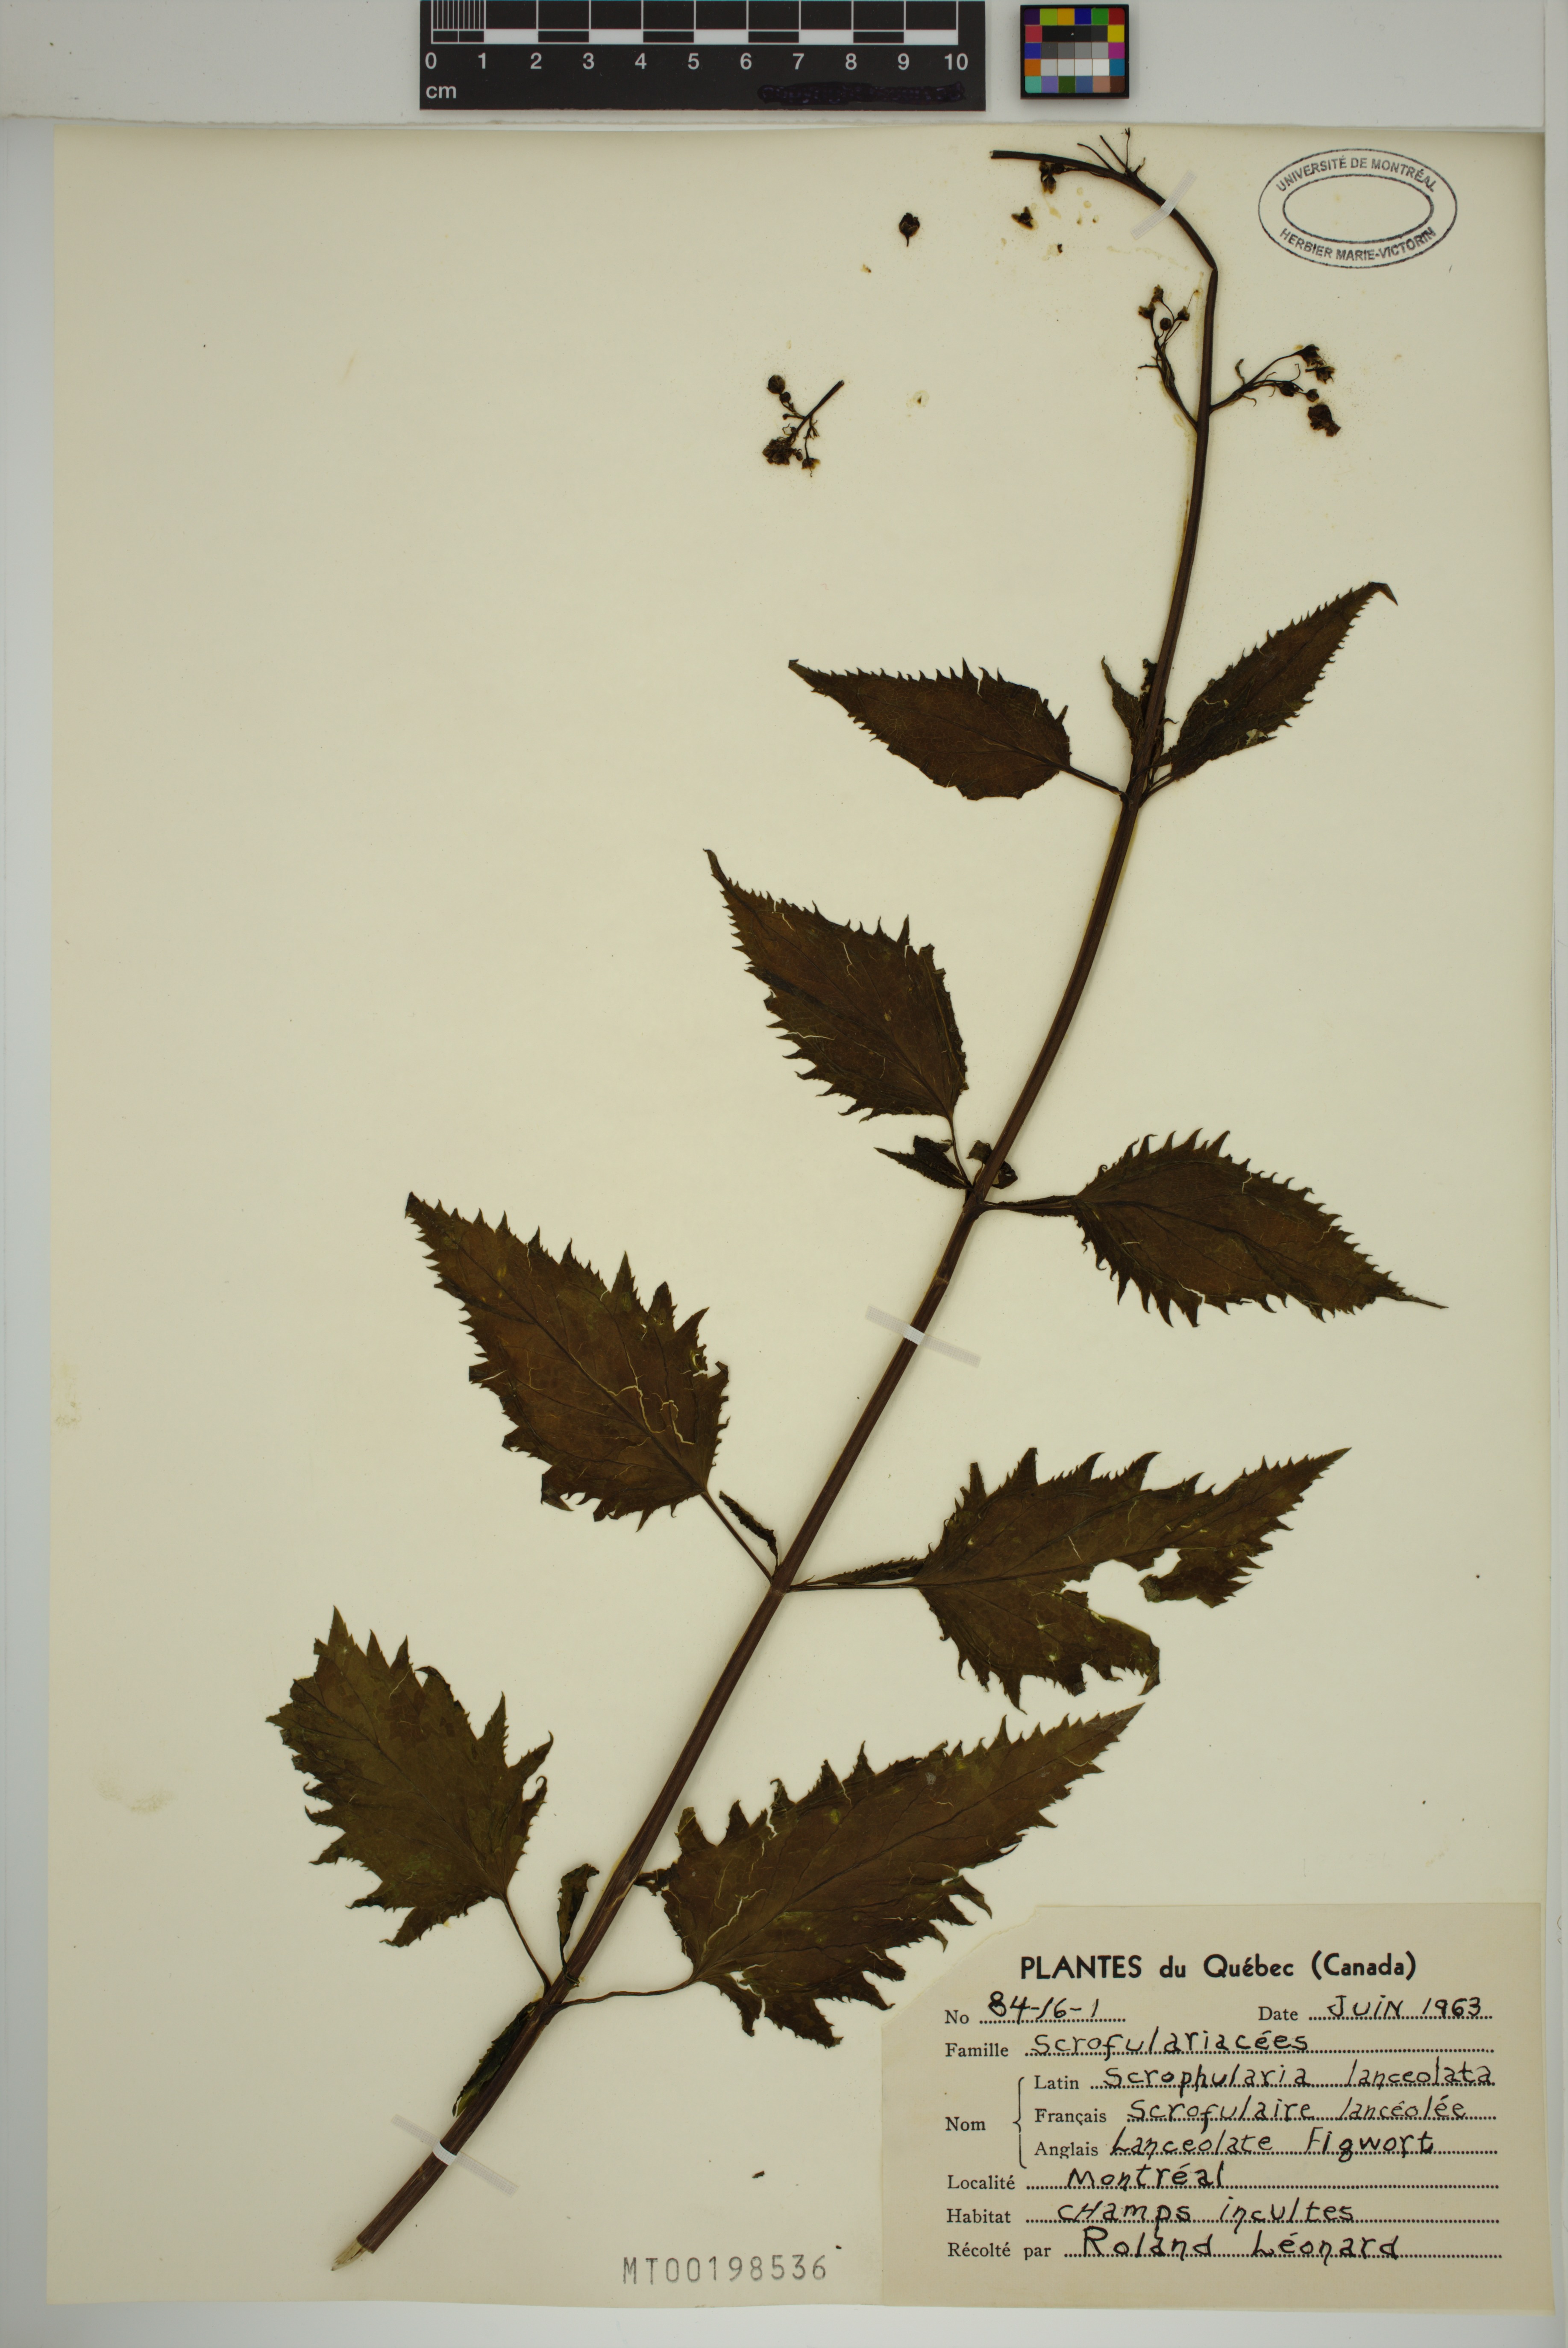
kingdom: Plantae
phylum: Tracheophyta
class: Magnoliopsida
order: Lamiales
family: Scrophulariaceae
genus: Scrophularia
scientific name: Scrophularia lanceolata
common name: American figwort
